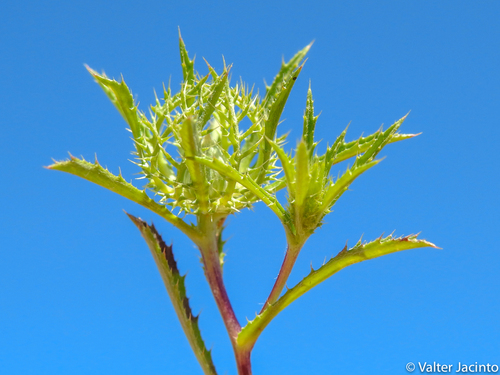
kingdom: Plantae
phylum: Tracheophyta
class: Magnoliopsida
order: Asterales
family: Asteraceae
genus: Atractylis
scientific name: Atractylis cancellata
